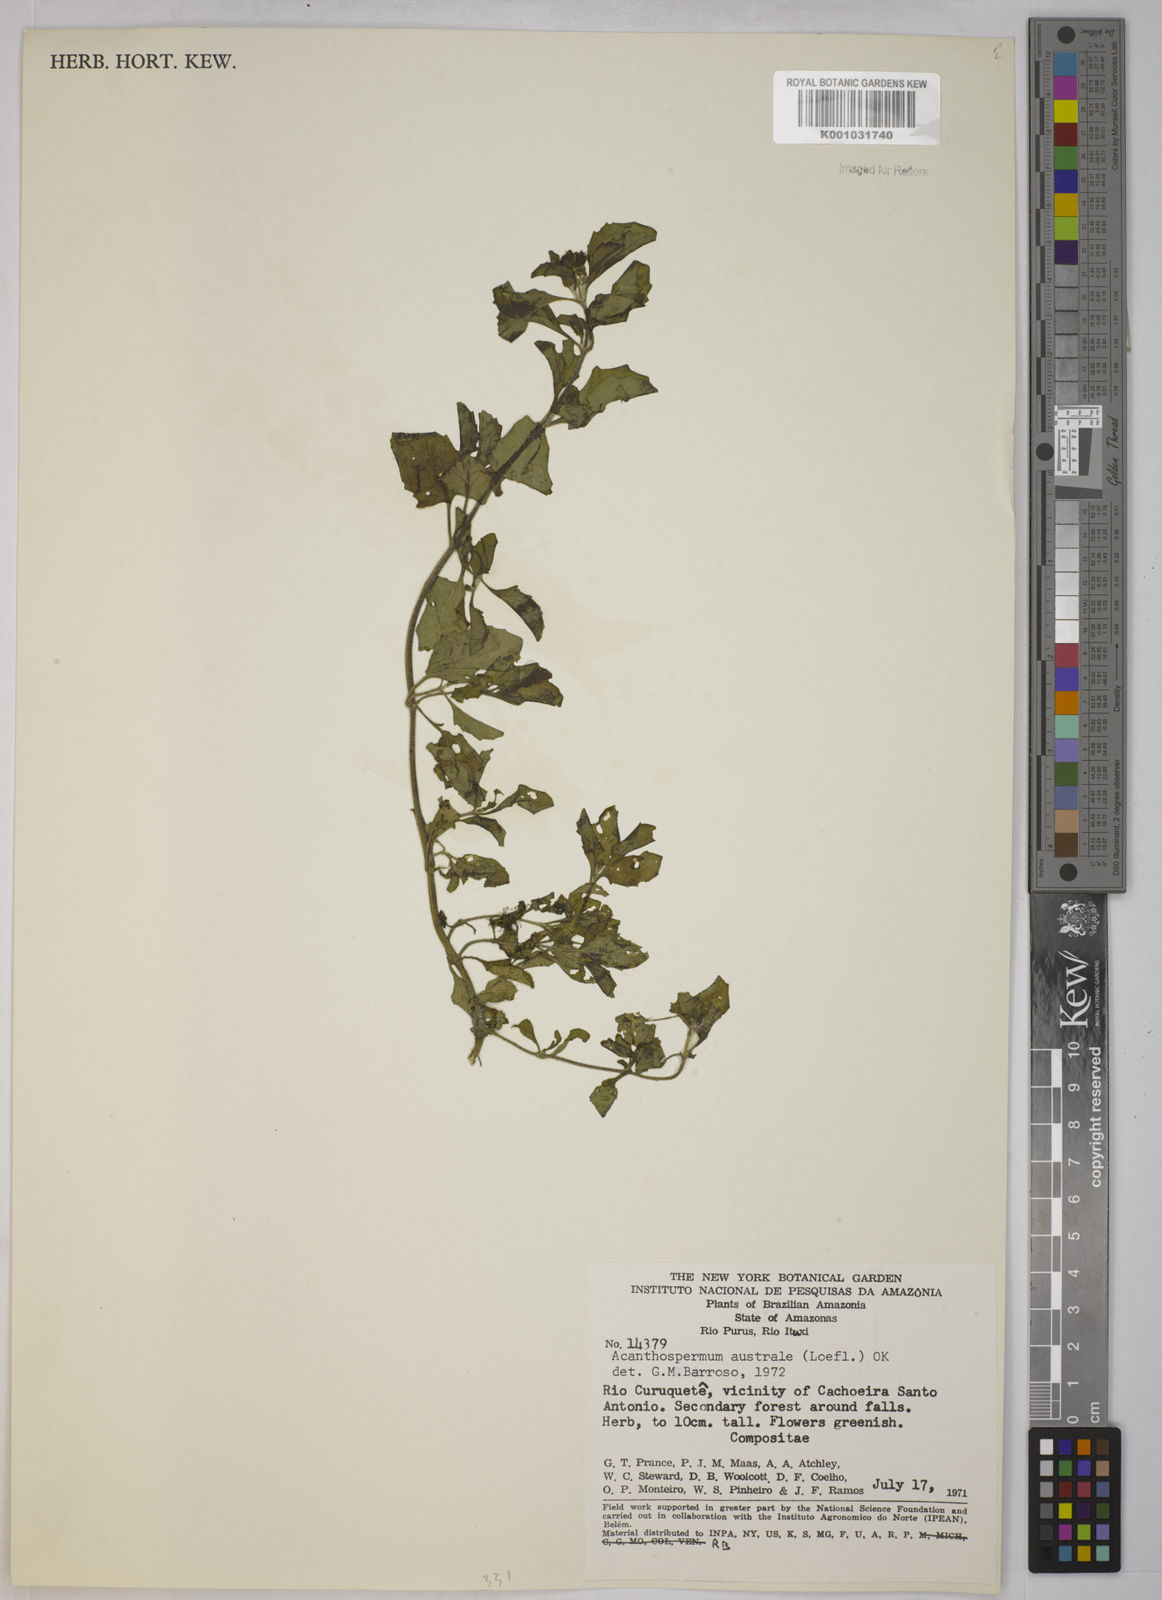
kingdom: Plantae
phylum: Tracheophyta
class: Magnoliopsida
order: Asterales
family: Asteraceae
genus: Acanthospermum
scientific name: Acanthospermum australe
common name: Paraguayan starbur
